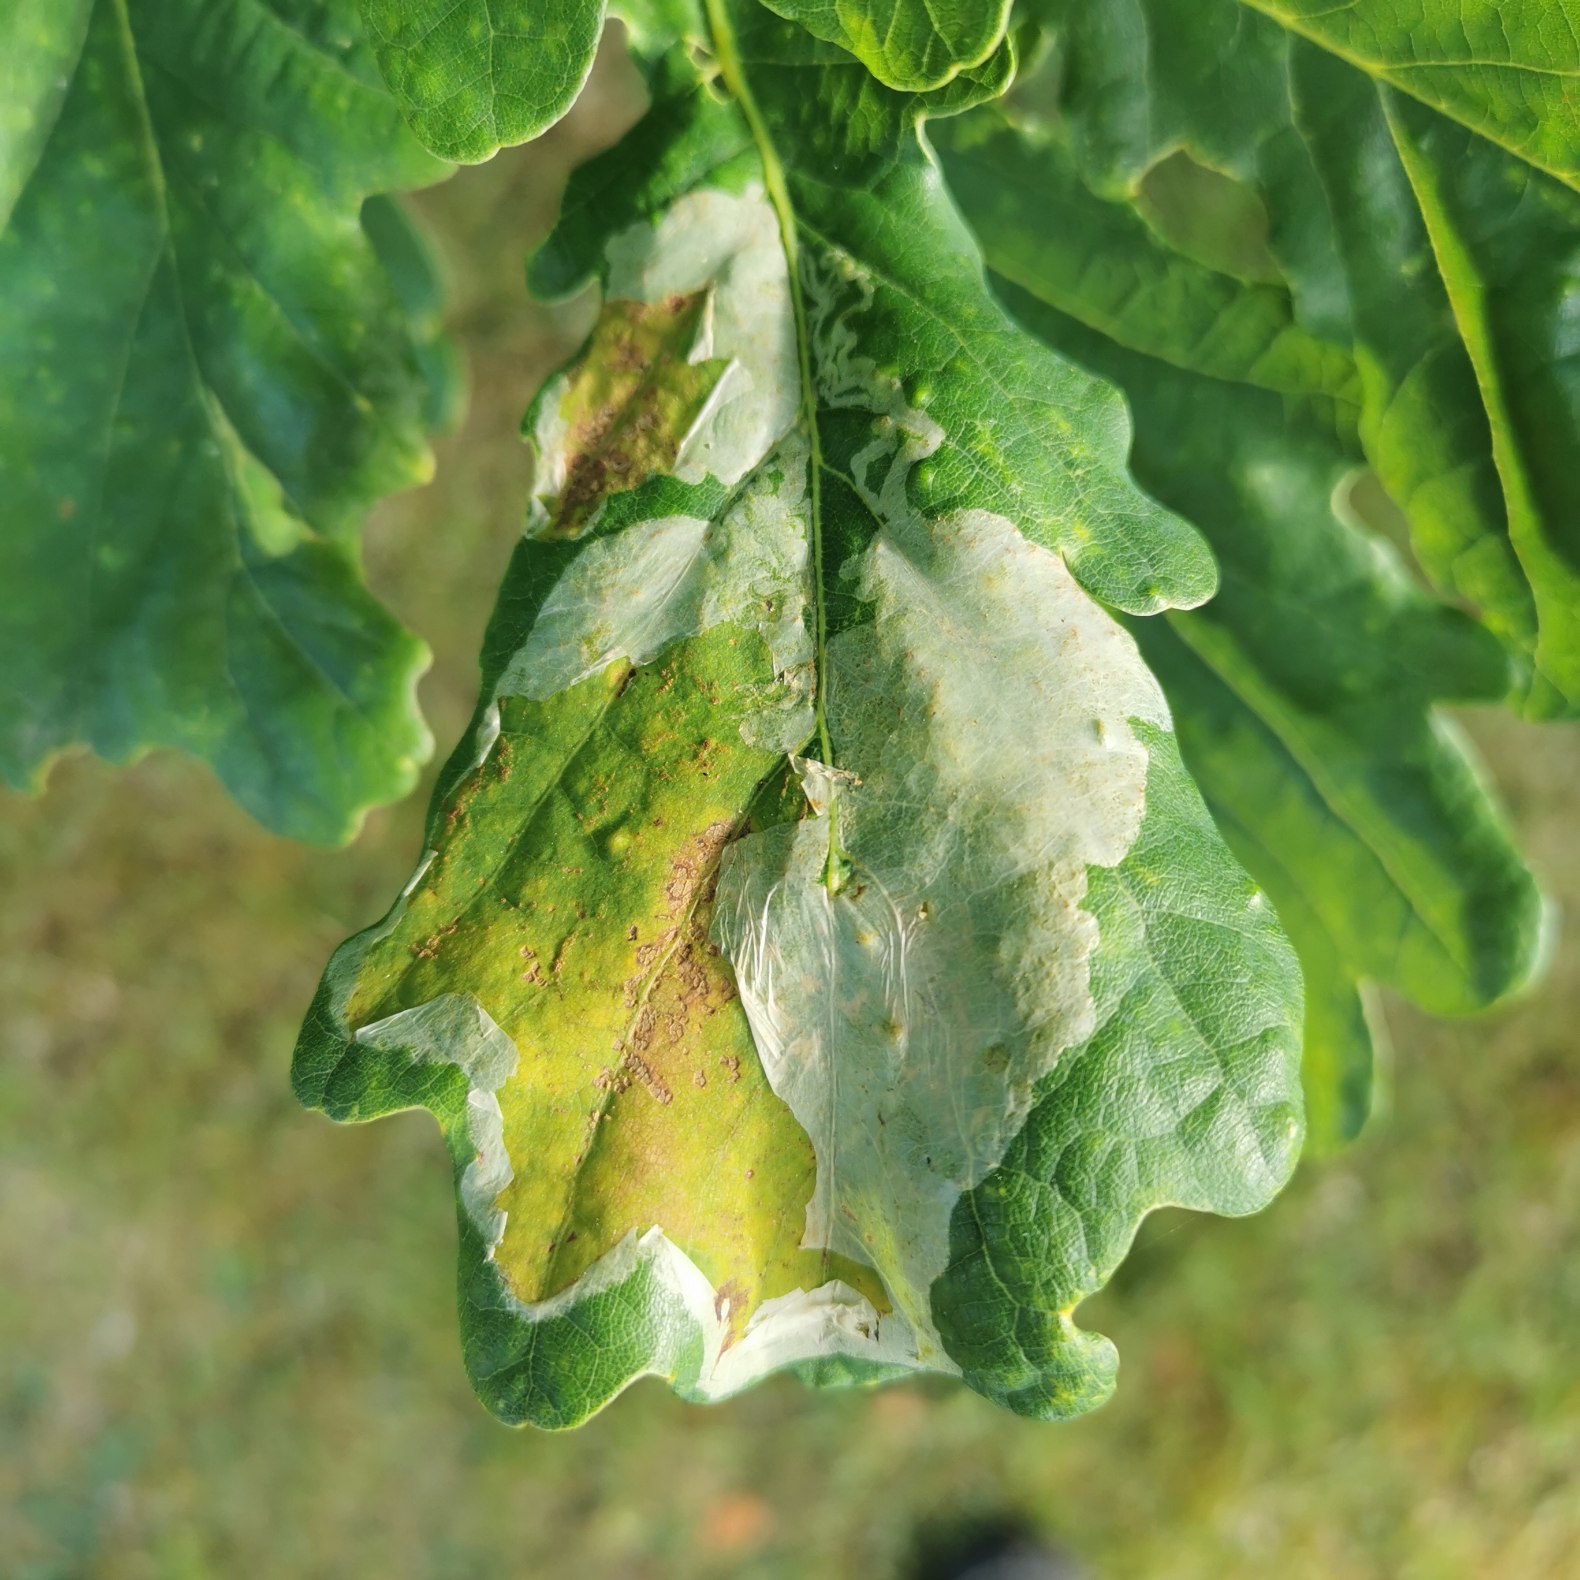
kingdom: Animalia
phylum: Arthropoda
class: Insecta
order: Lepidoptera
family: Gracillariidae
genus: Acrocercops
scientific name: Acrocercops brongniardella
